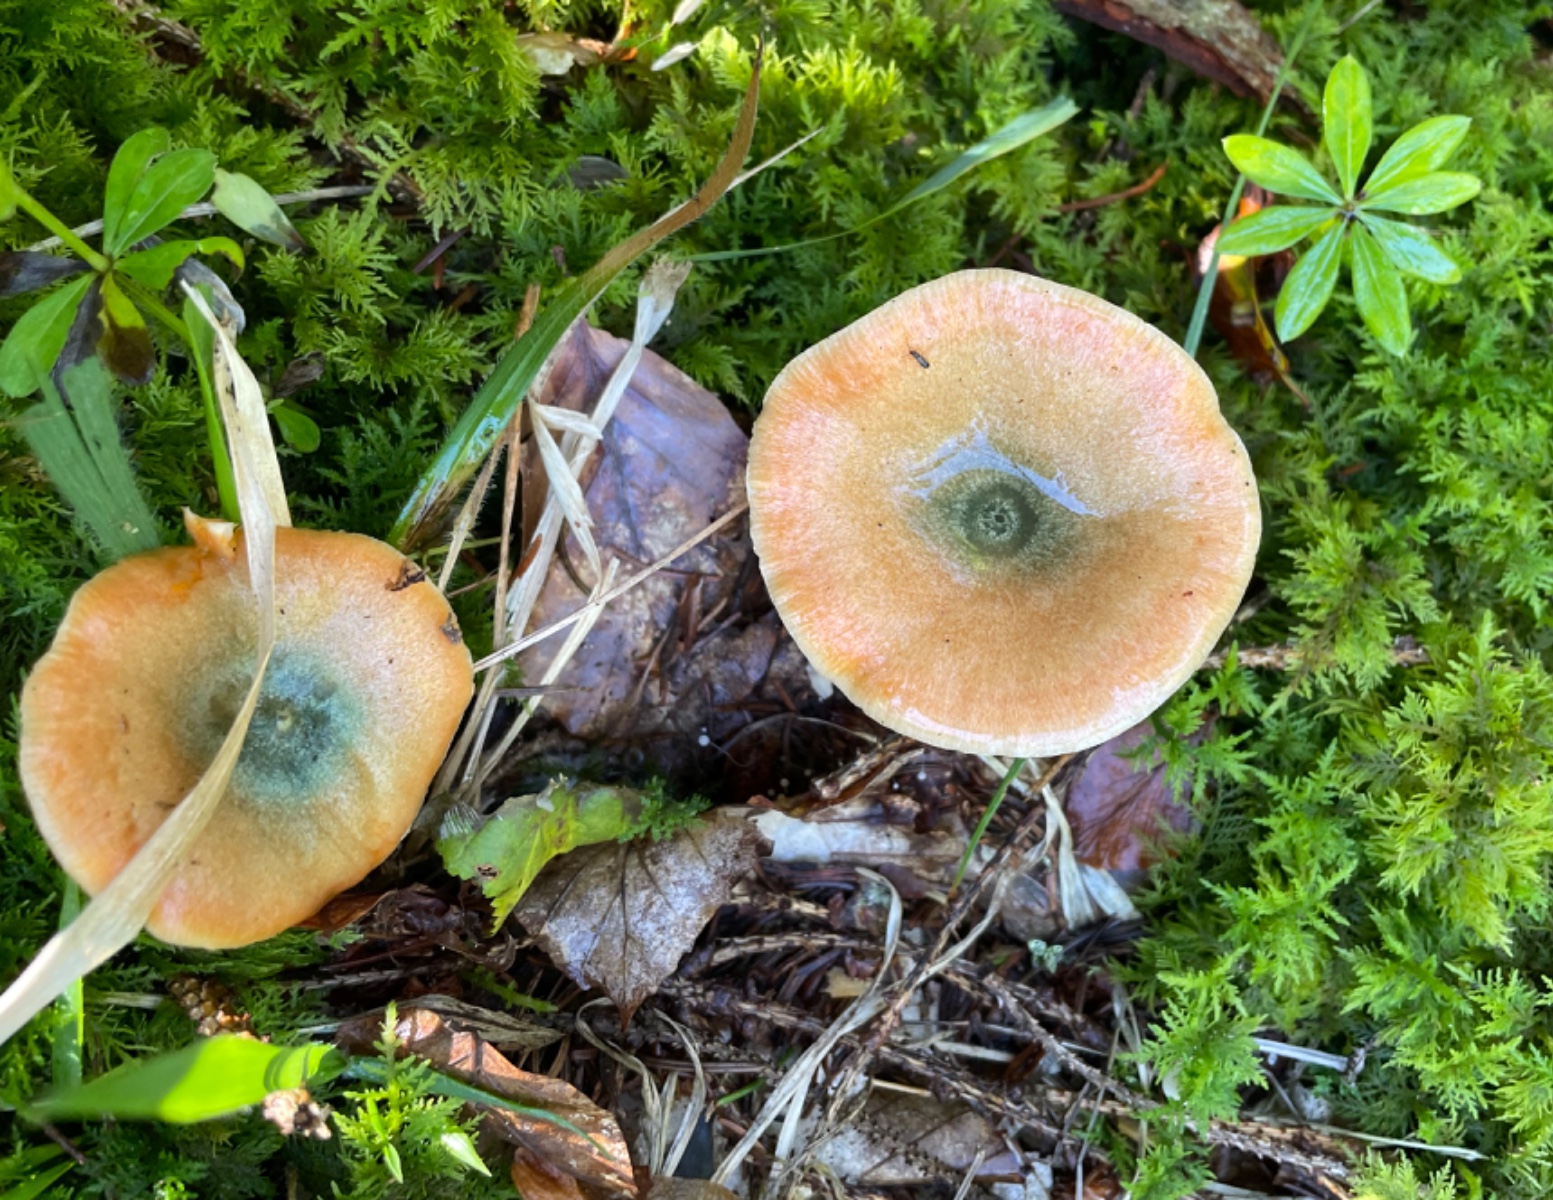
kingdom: Fungi
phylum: Basidiomycota
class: Agaricomycetes
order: Russulales
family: Russulaceae
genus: Lactarius
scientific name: Lactarius deterrimus
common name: gran-mælkehat
